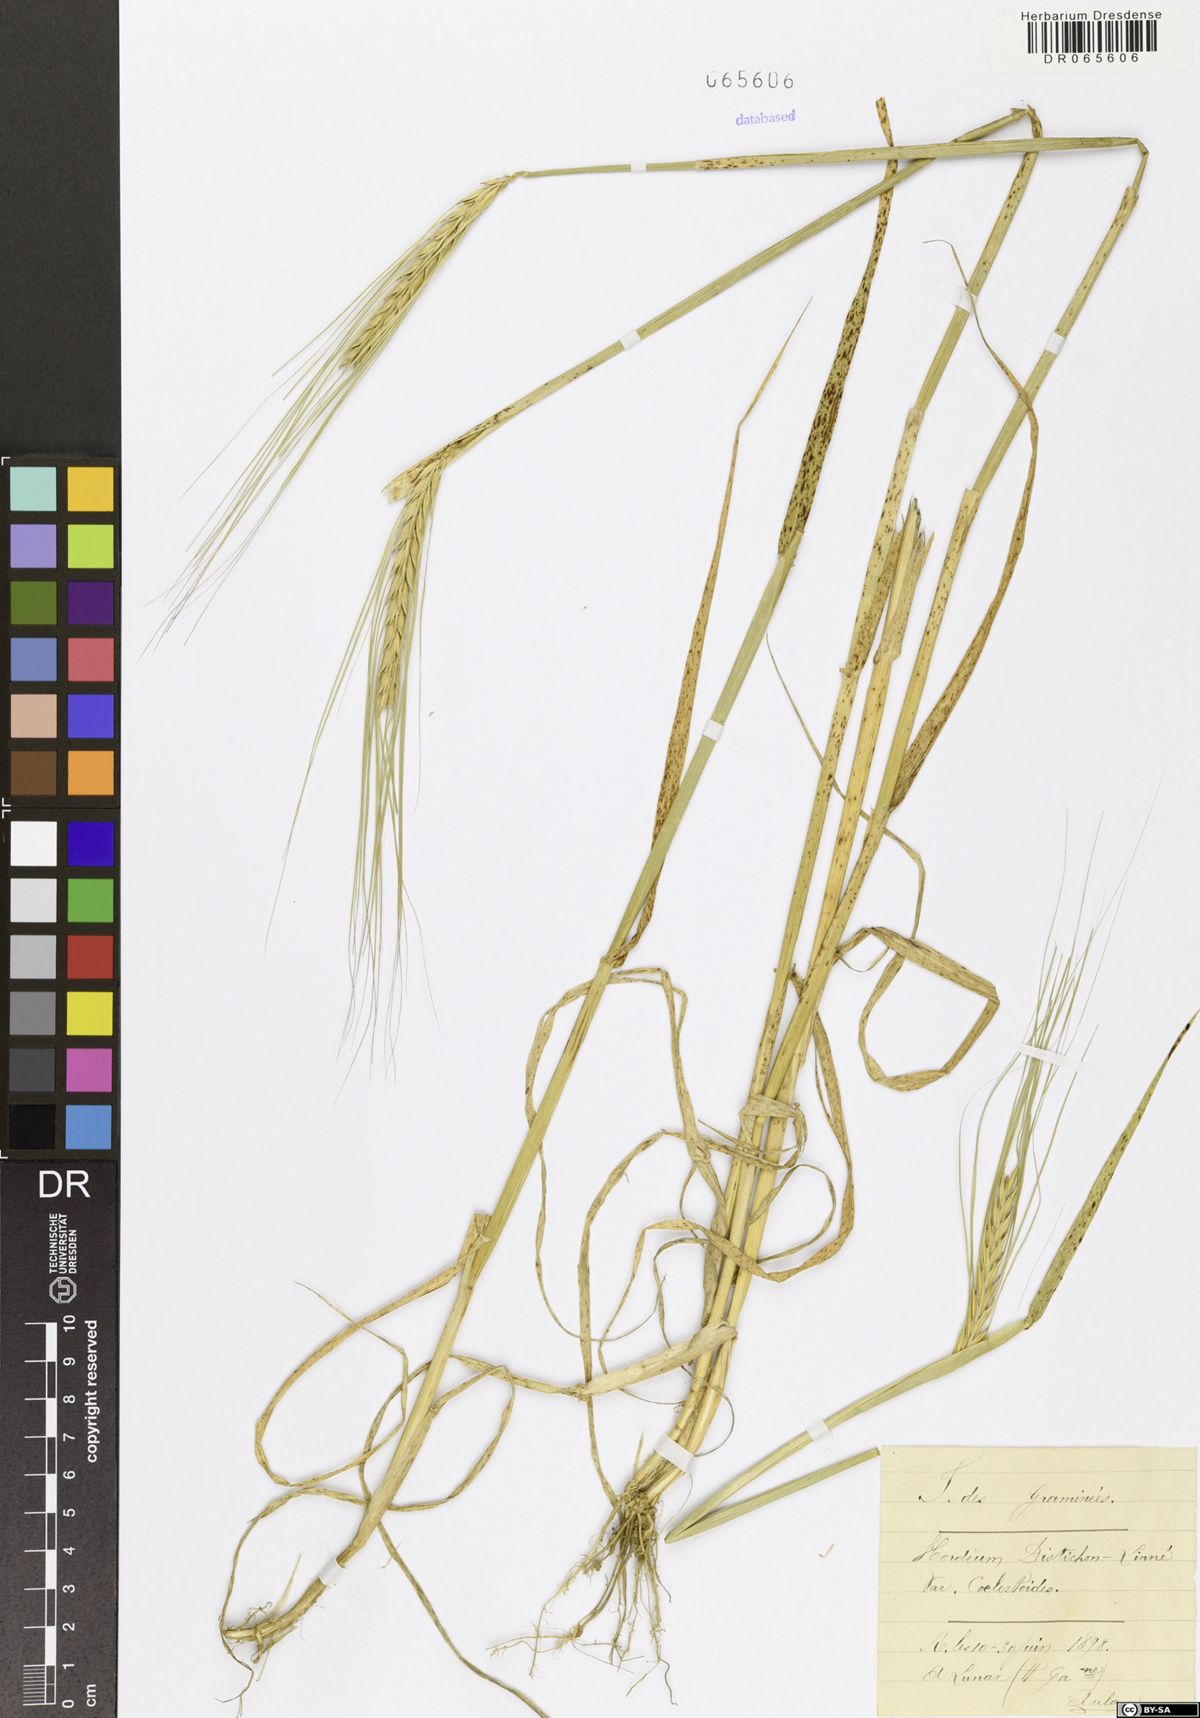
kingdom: Plantae
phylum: Tracheophyta
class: Liliopsida
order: Poales
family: Poaceae
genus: Hordeum
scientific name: Hordeum distichon
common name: Two-rowed barley
